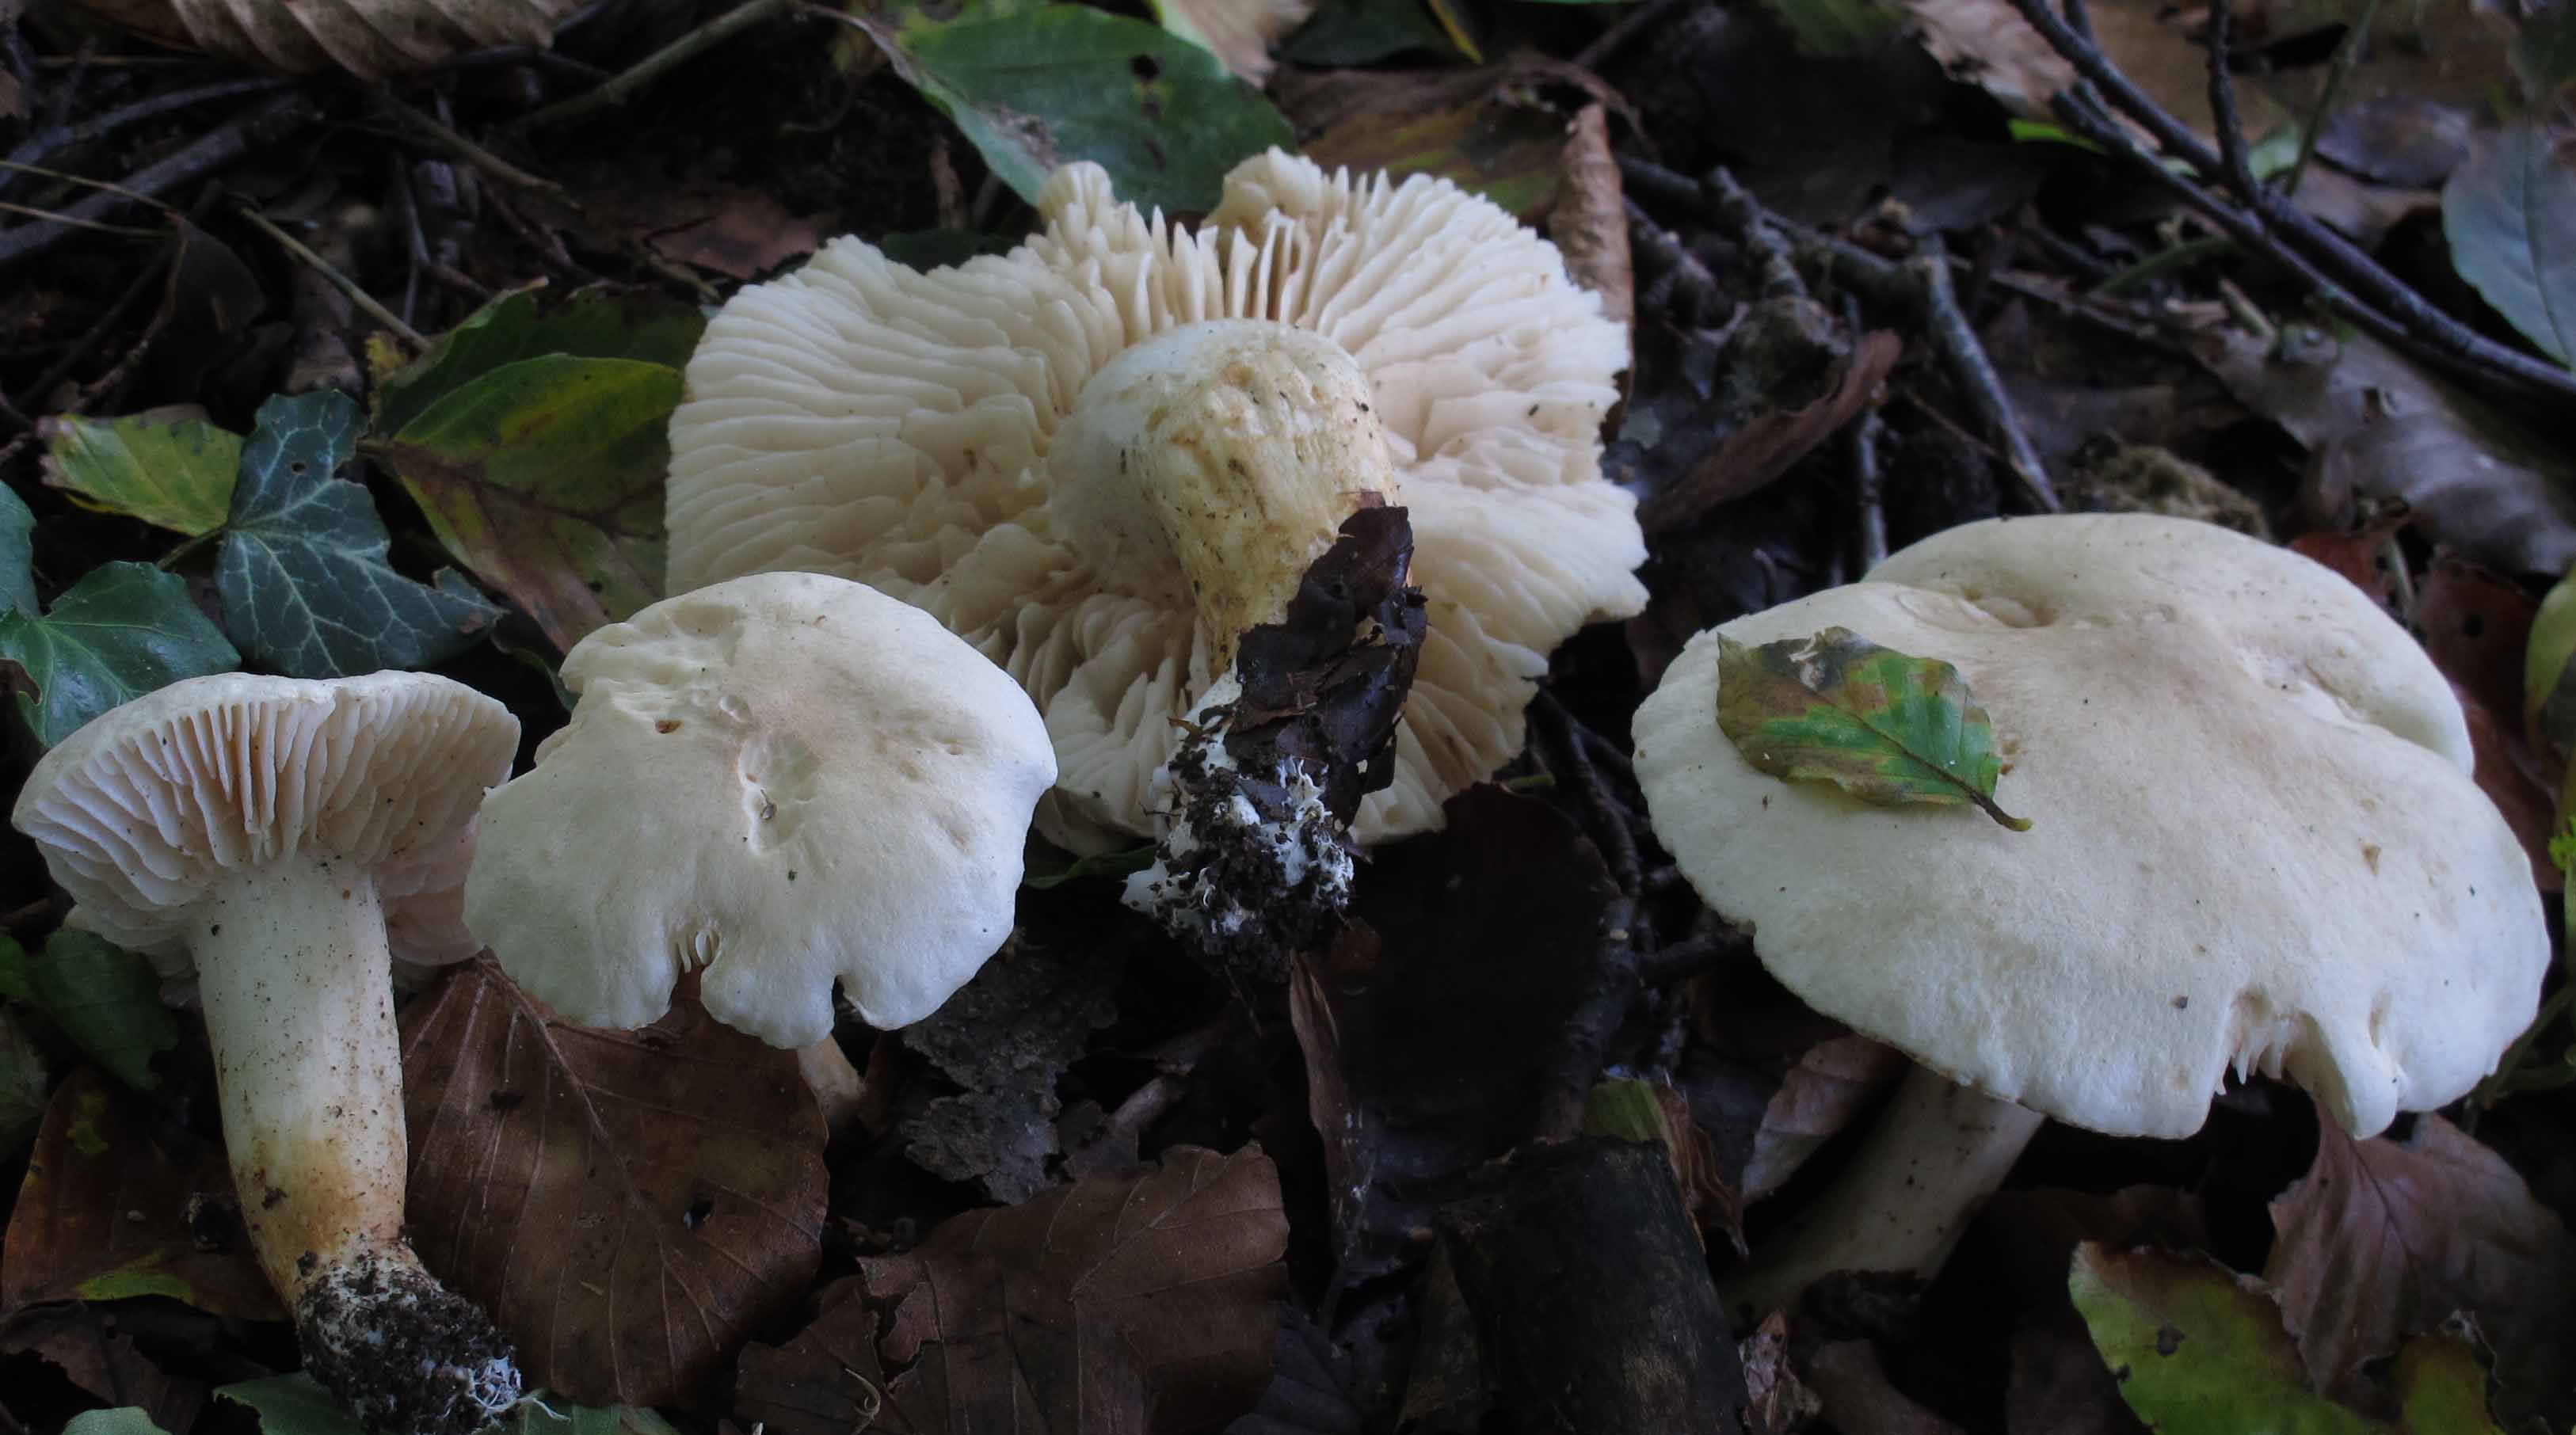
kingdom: Fungi
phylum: Basidiomycota
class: Agaricomycetes
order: Agaricales
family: Tricholomataceae
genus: Tricholoma
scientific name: Tricholoma album
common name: honning-ridderhat
